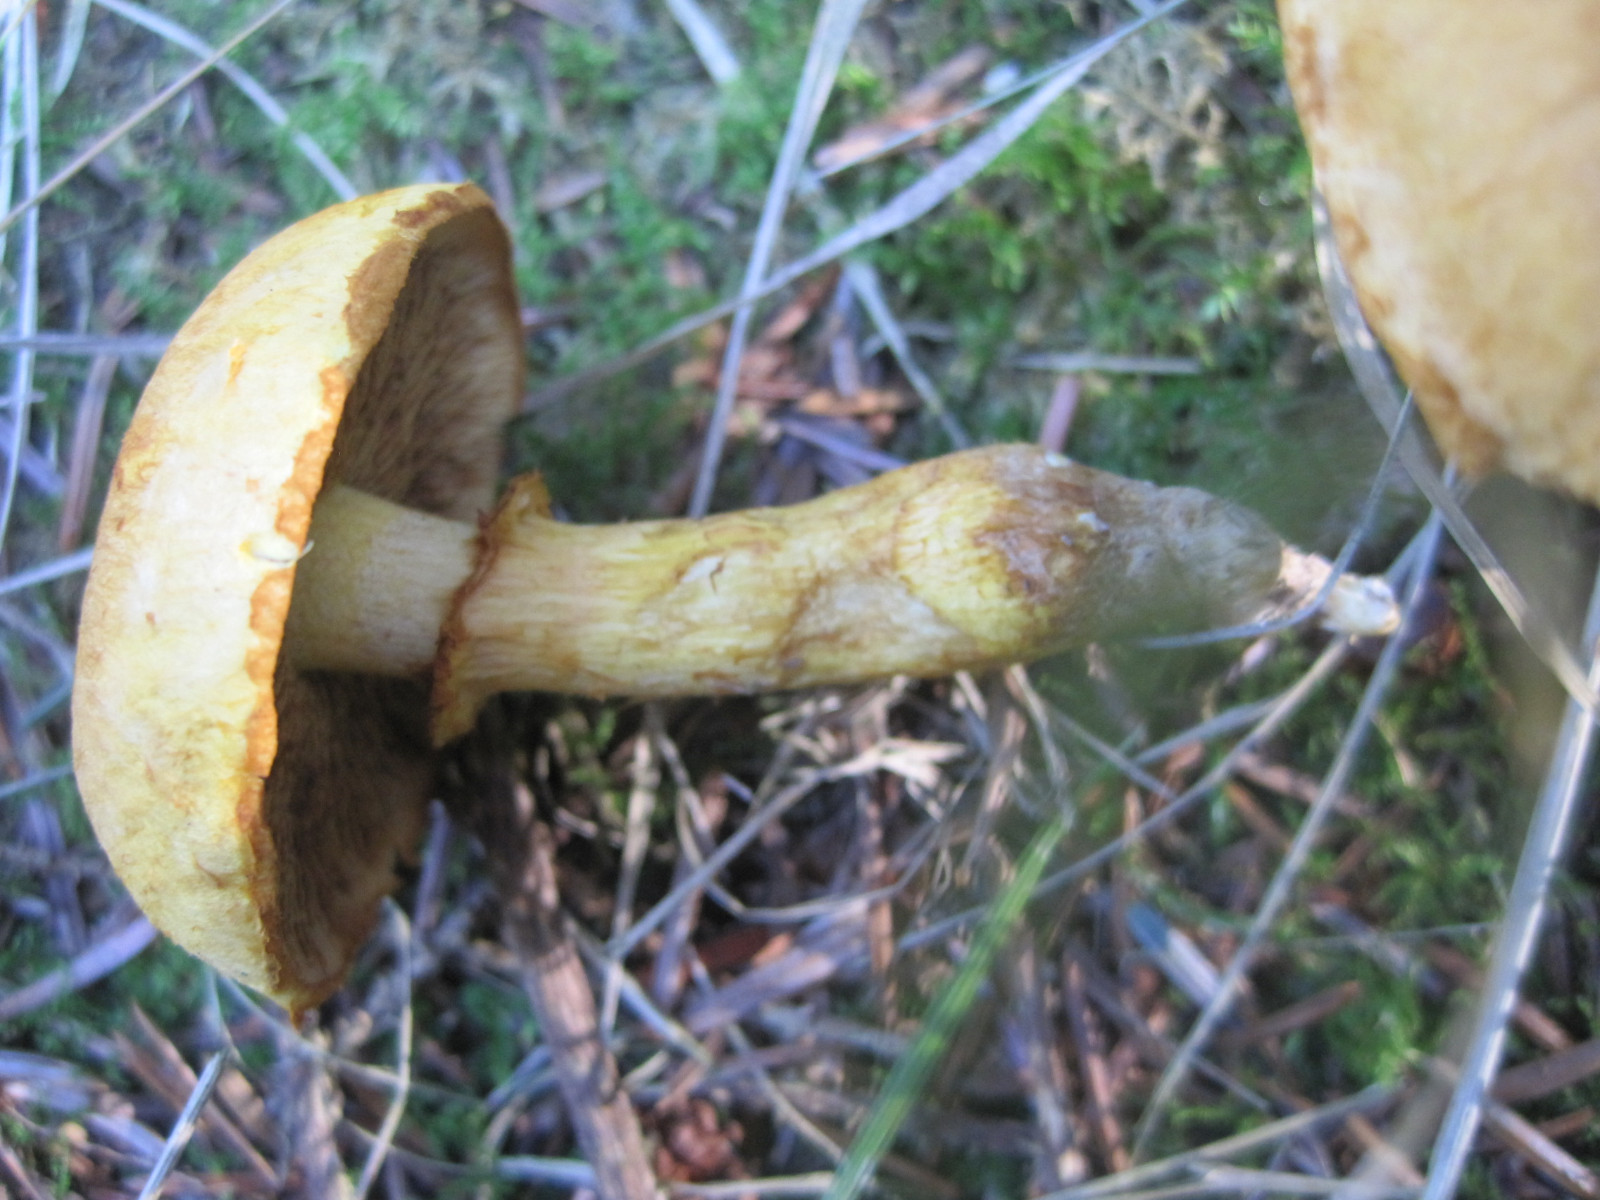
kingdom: Fungi
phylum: Basidiomycota
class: Agaricomycetes
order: Agaricales
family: Hymenogastraceae
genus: Gymnopilus
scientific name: Gymnopilus spectabilis
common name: fibret flammehat
